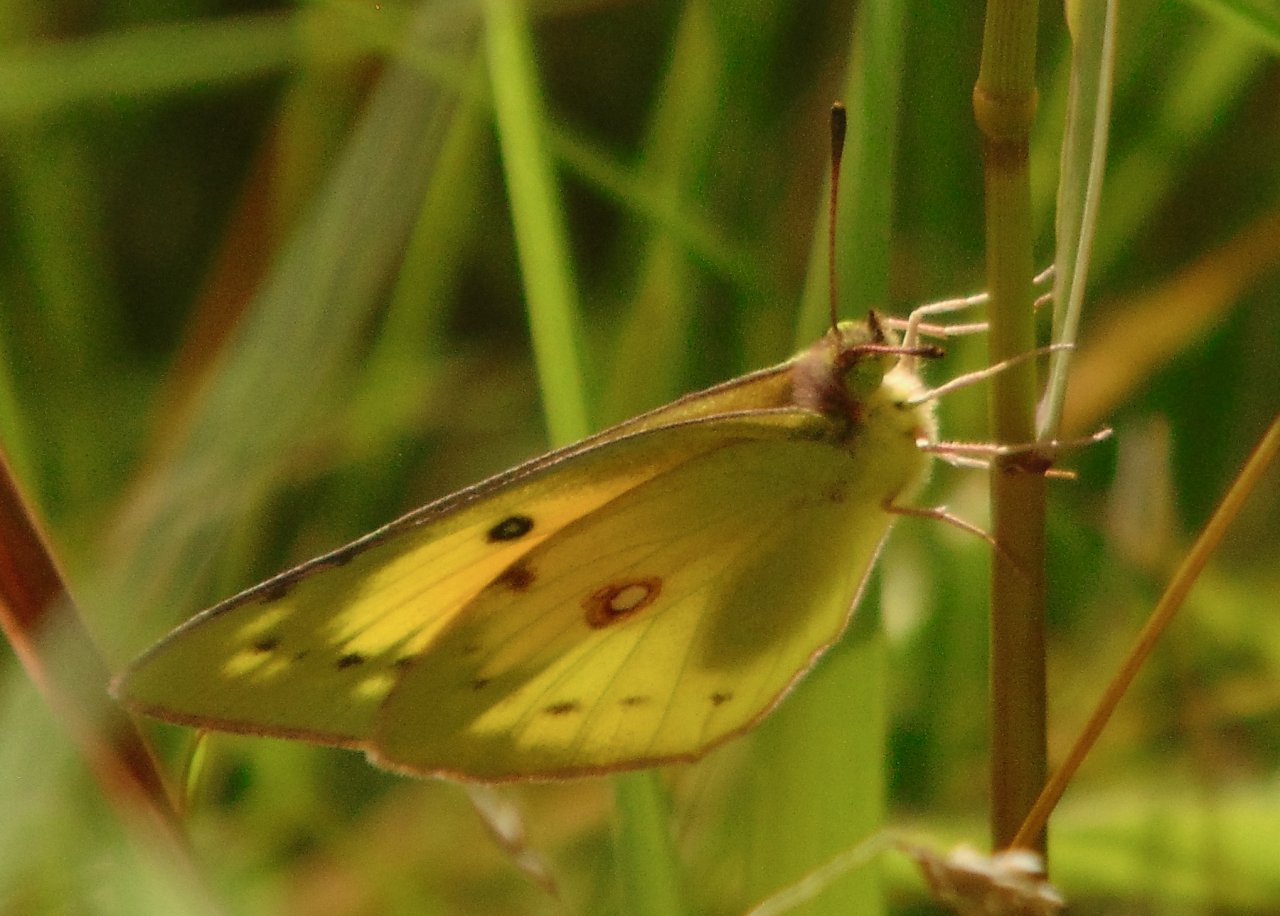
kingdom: Animalia
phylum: Arthropoda
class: Insecta
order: Lepidoptera
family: Pieridae
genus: Colias
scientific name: Colias eurytheme
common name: Orange Sulphur
